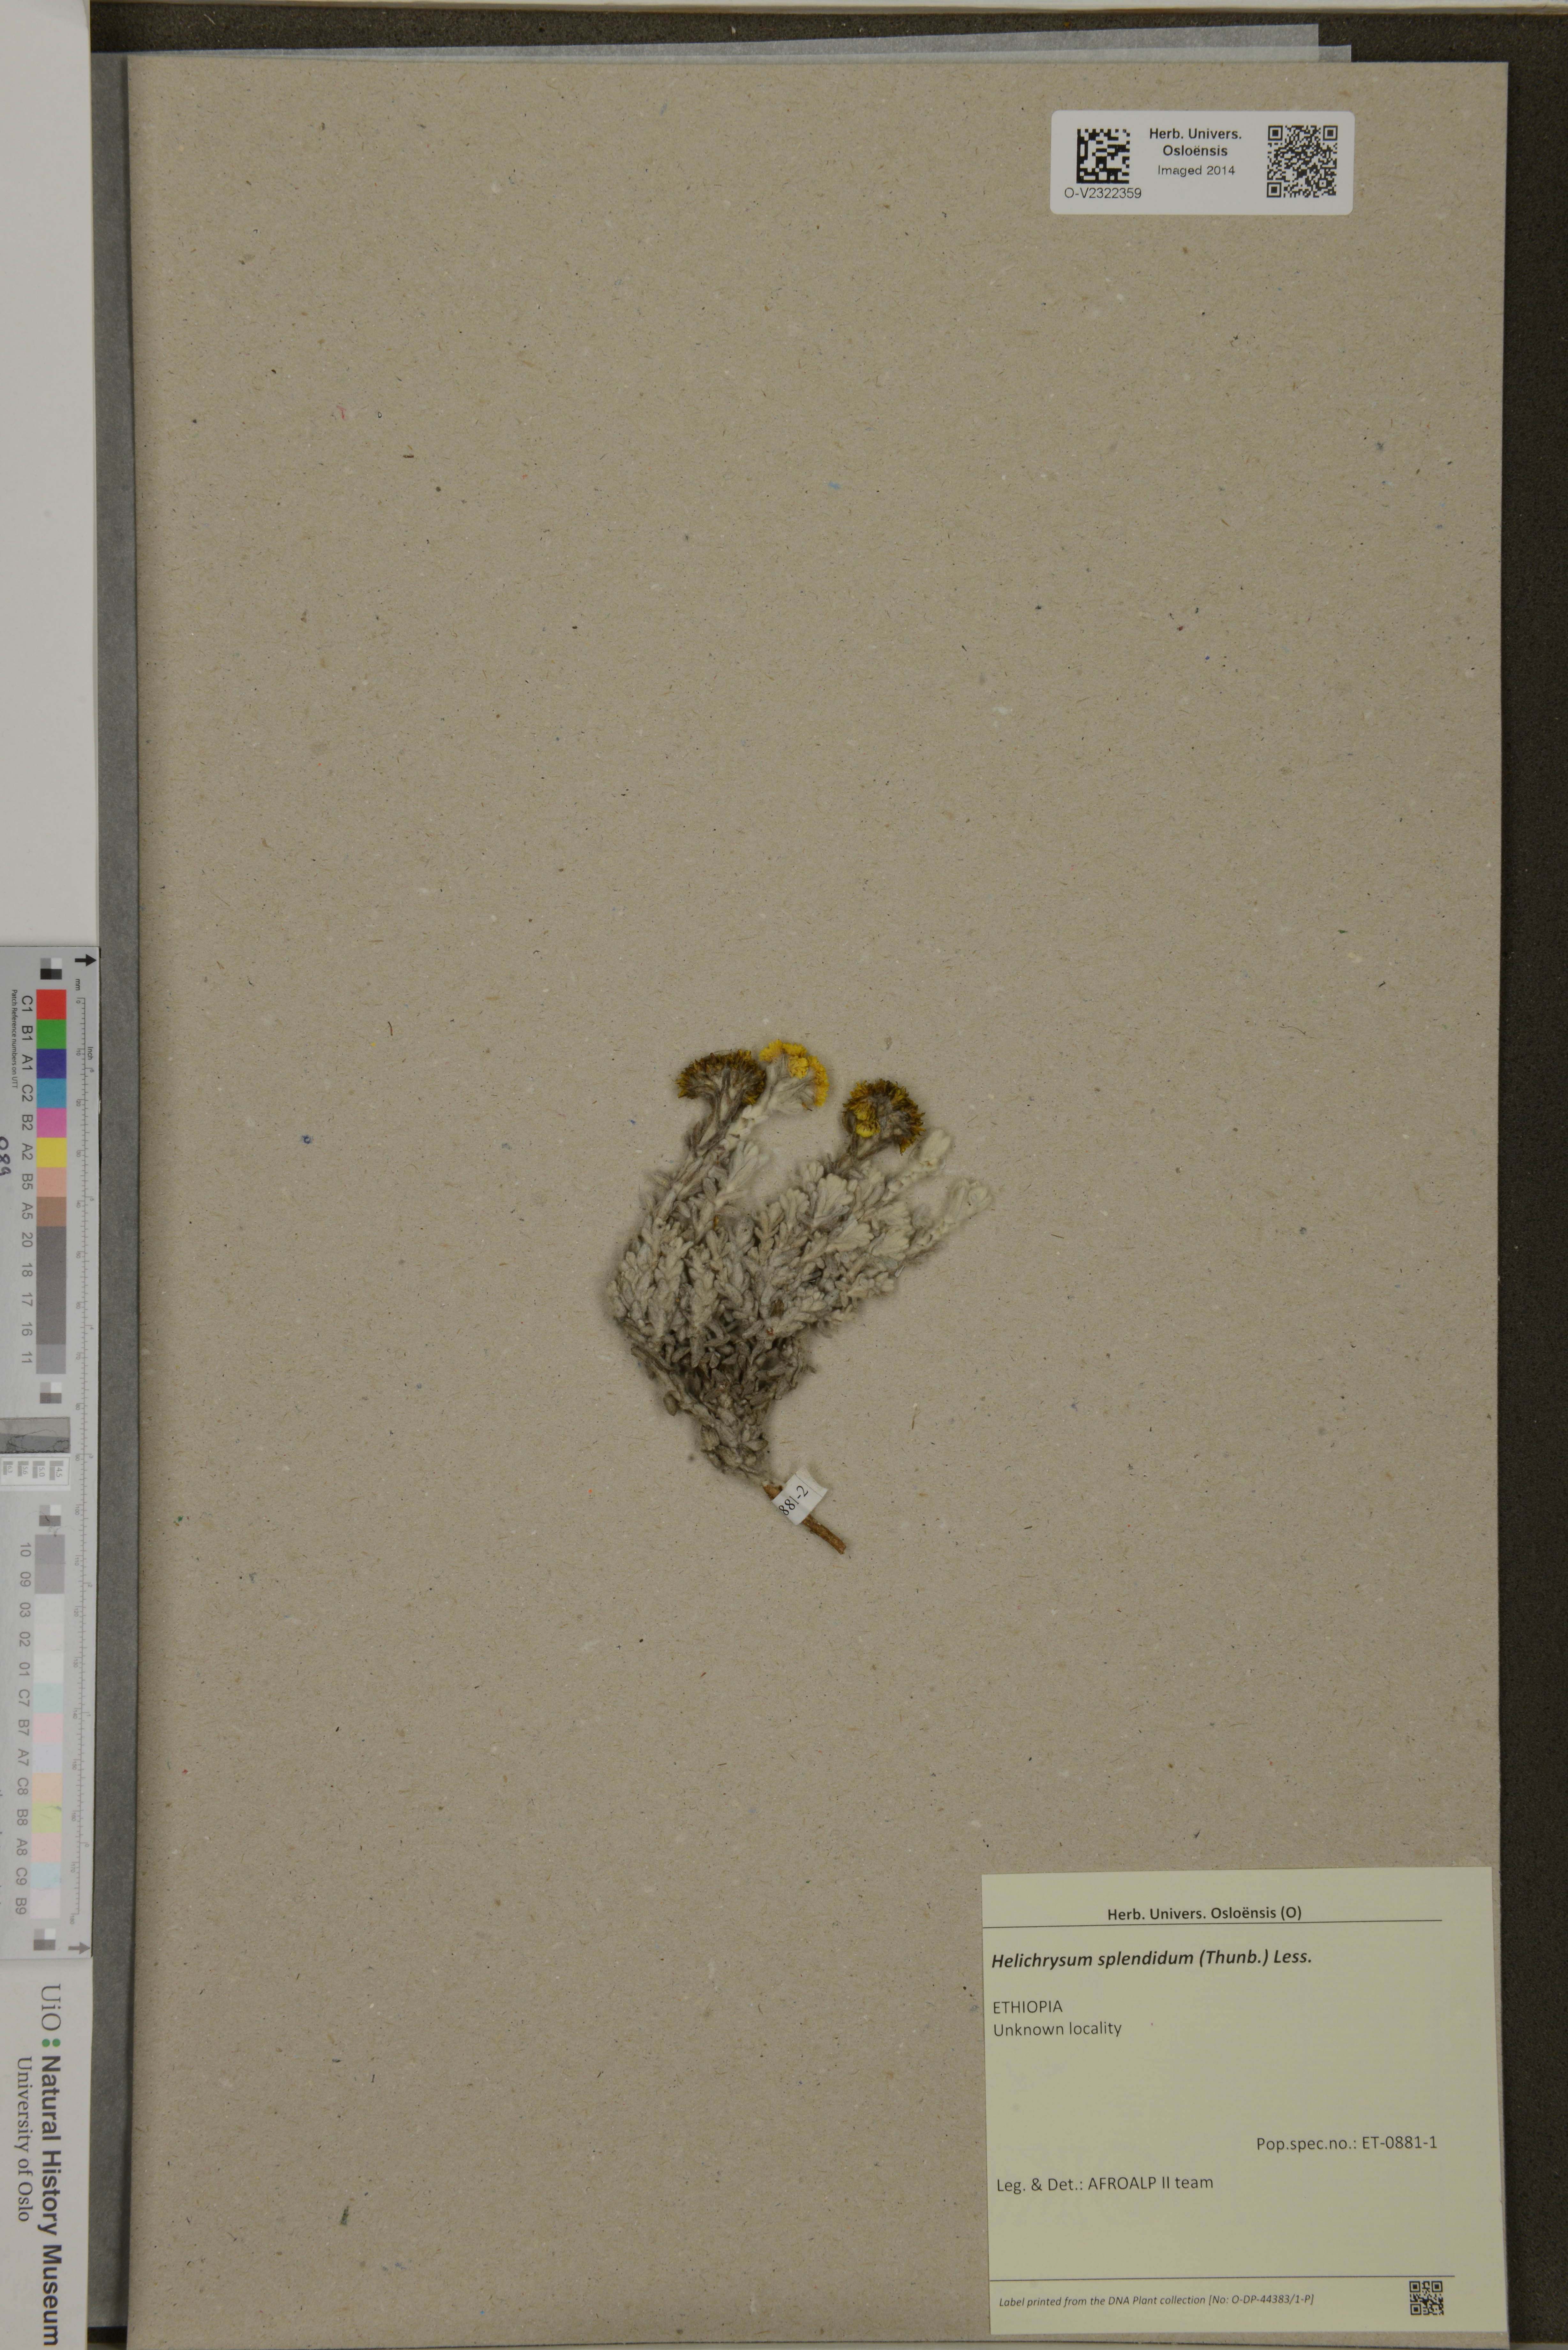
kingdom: Plantae
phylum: Tracheophyta
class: Magnoliopsida
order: Asterales
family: Asteraceae
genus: Helichrysum
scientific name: Helichrysum splendidum
